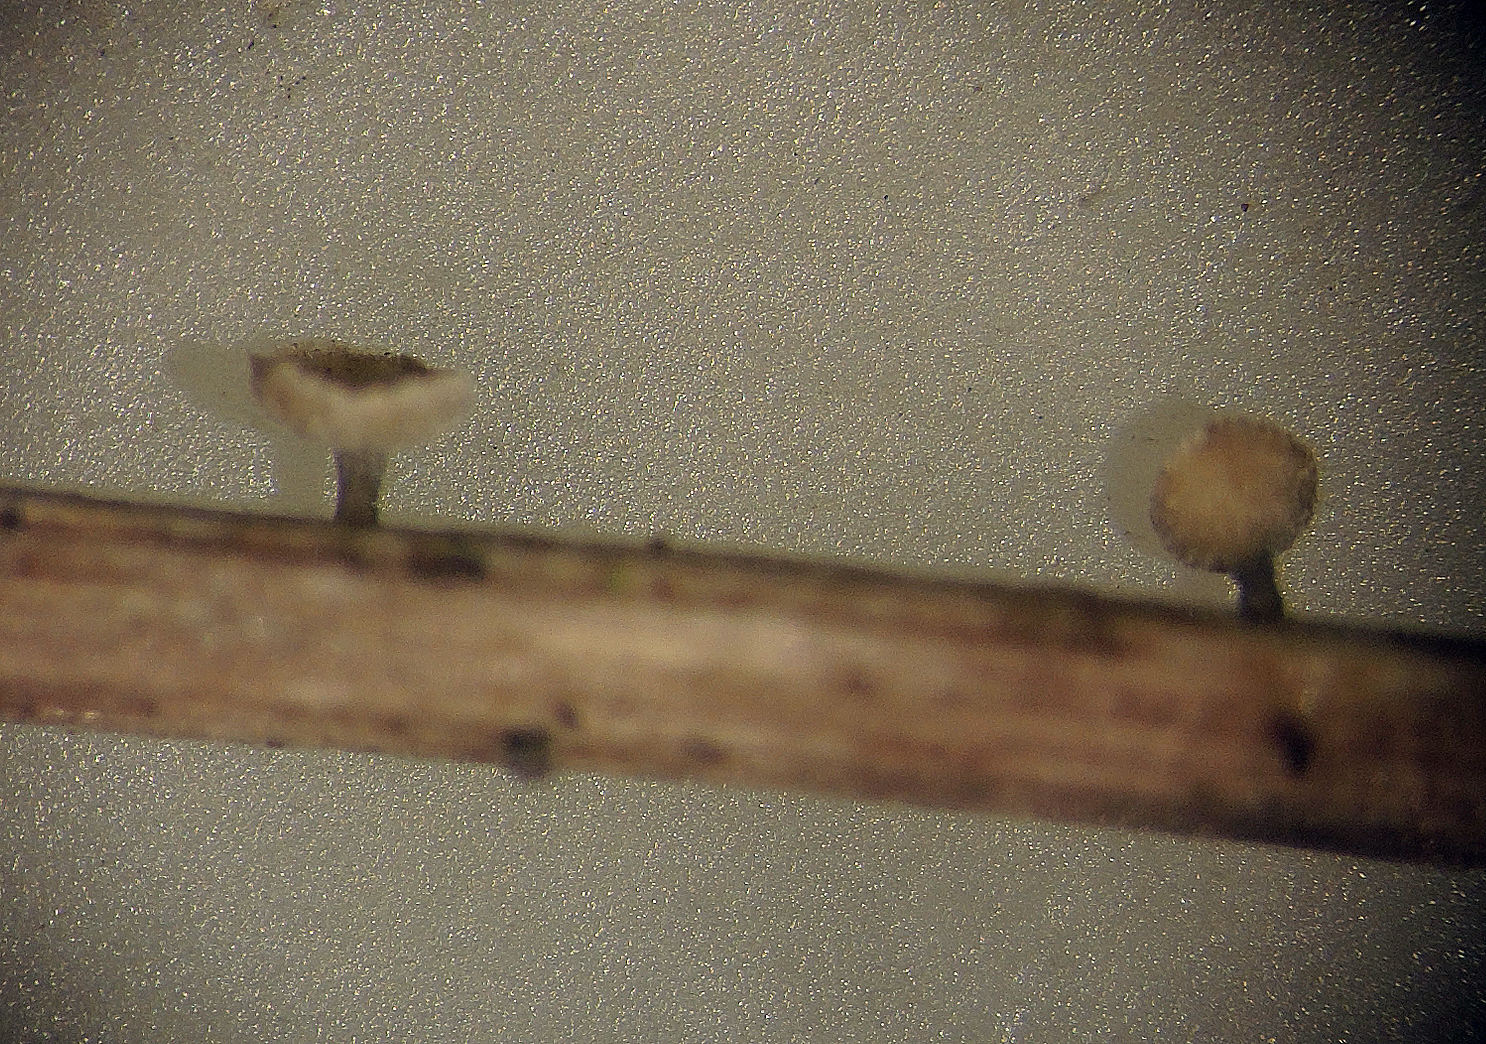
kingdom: Fungi
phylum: Ascomycota
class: Leotiomycetes
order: Helotiales
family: Helotiaceae
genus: Cyathicula
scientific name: Cyathicula
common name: stilkskive
